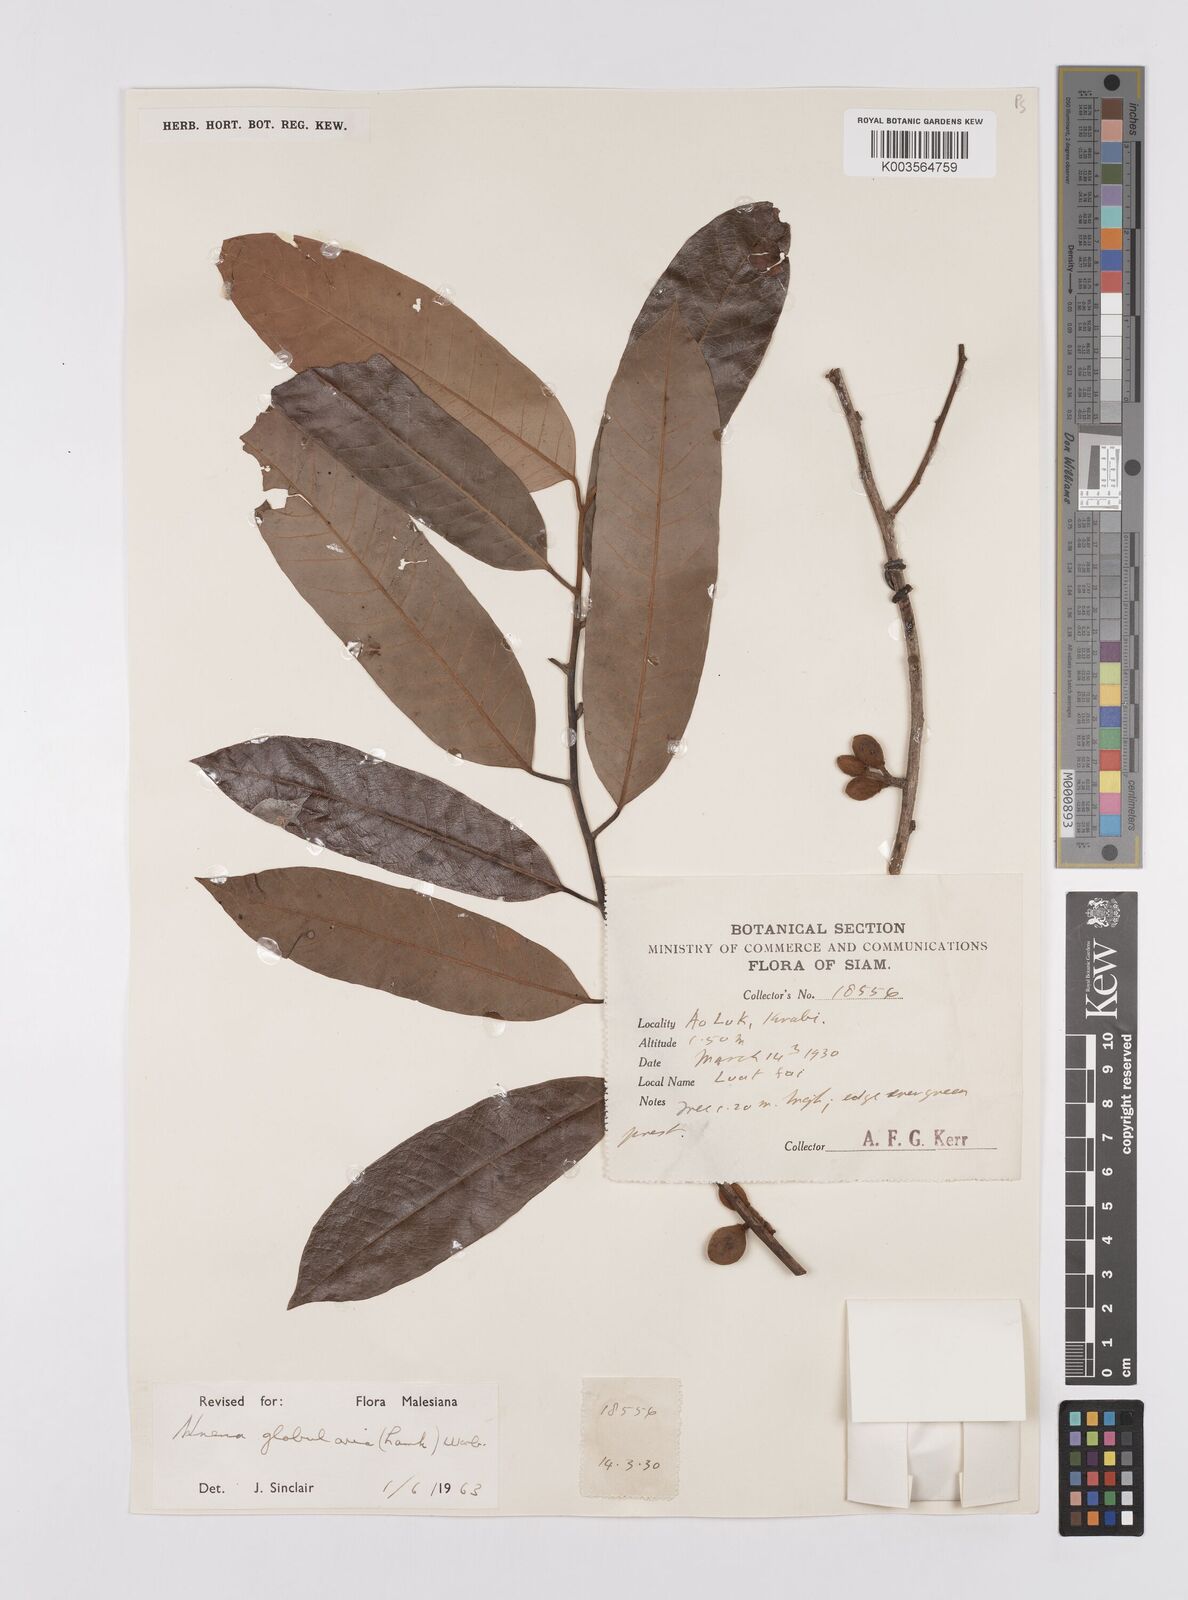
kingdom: Plantae
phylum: Tracheophyta
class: Magnoliopsida
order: Magnoliales
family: Myristicaceae
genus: Knema
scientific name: Knema globularia
